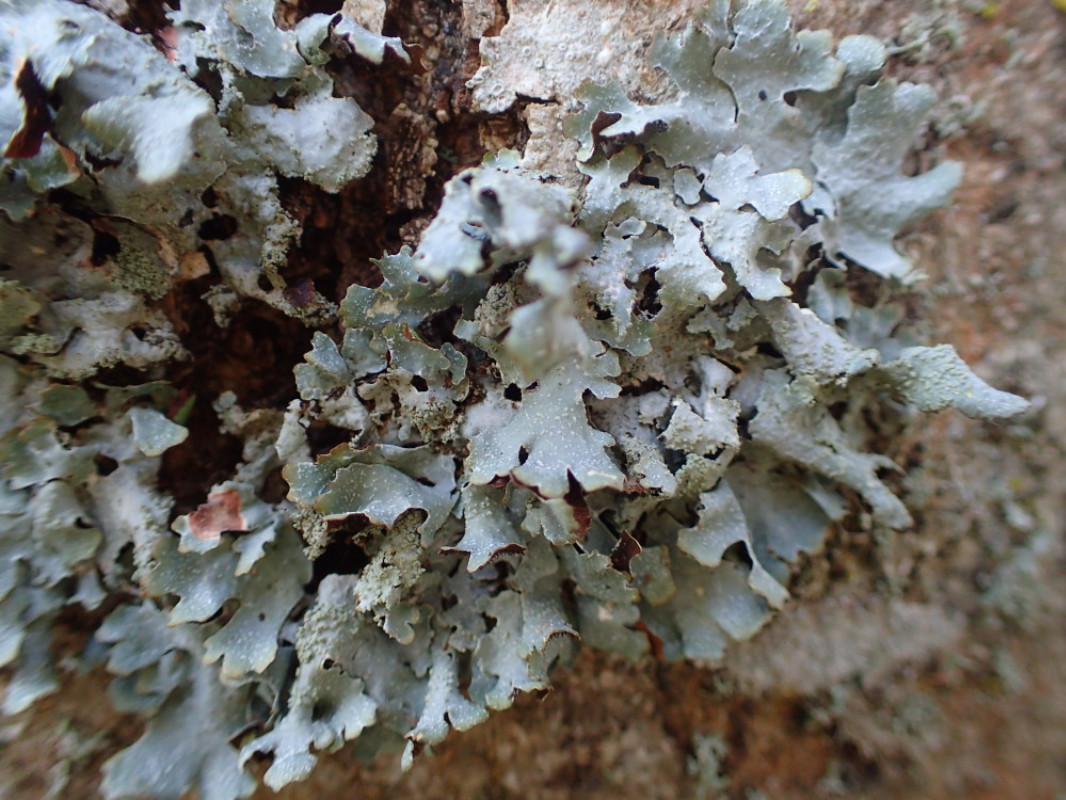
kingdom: Fungi
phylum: Ascomycota
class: Lecanoromycetes
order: Lecanorales
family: Parmeliaceae
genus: Parmelia
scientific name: Parmelia sulcata
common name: rynket skållav
